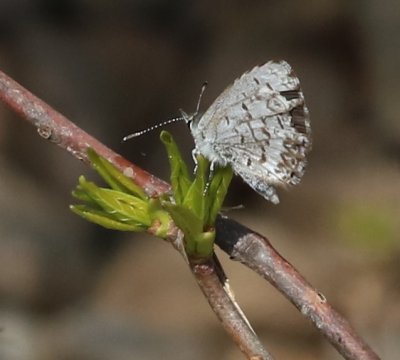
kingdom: Animalia
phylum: Arthropoda
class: Insecta
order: Lepidoptera
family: Lycaenidae
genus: Celastrina
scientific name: Celastrina lucia
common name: Northern Spring Azure
